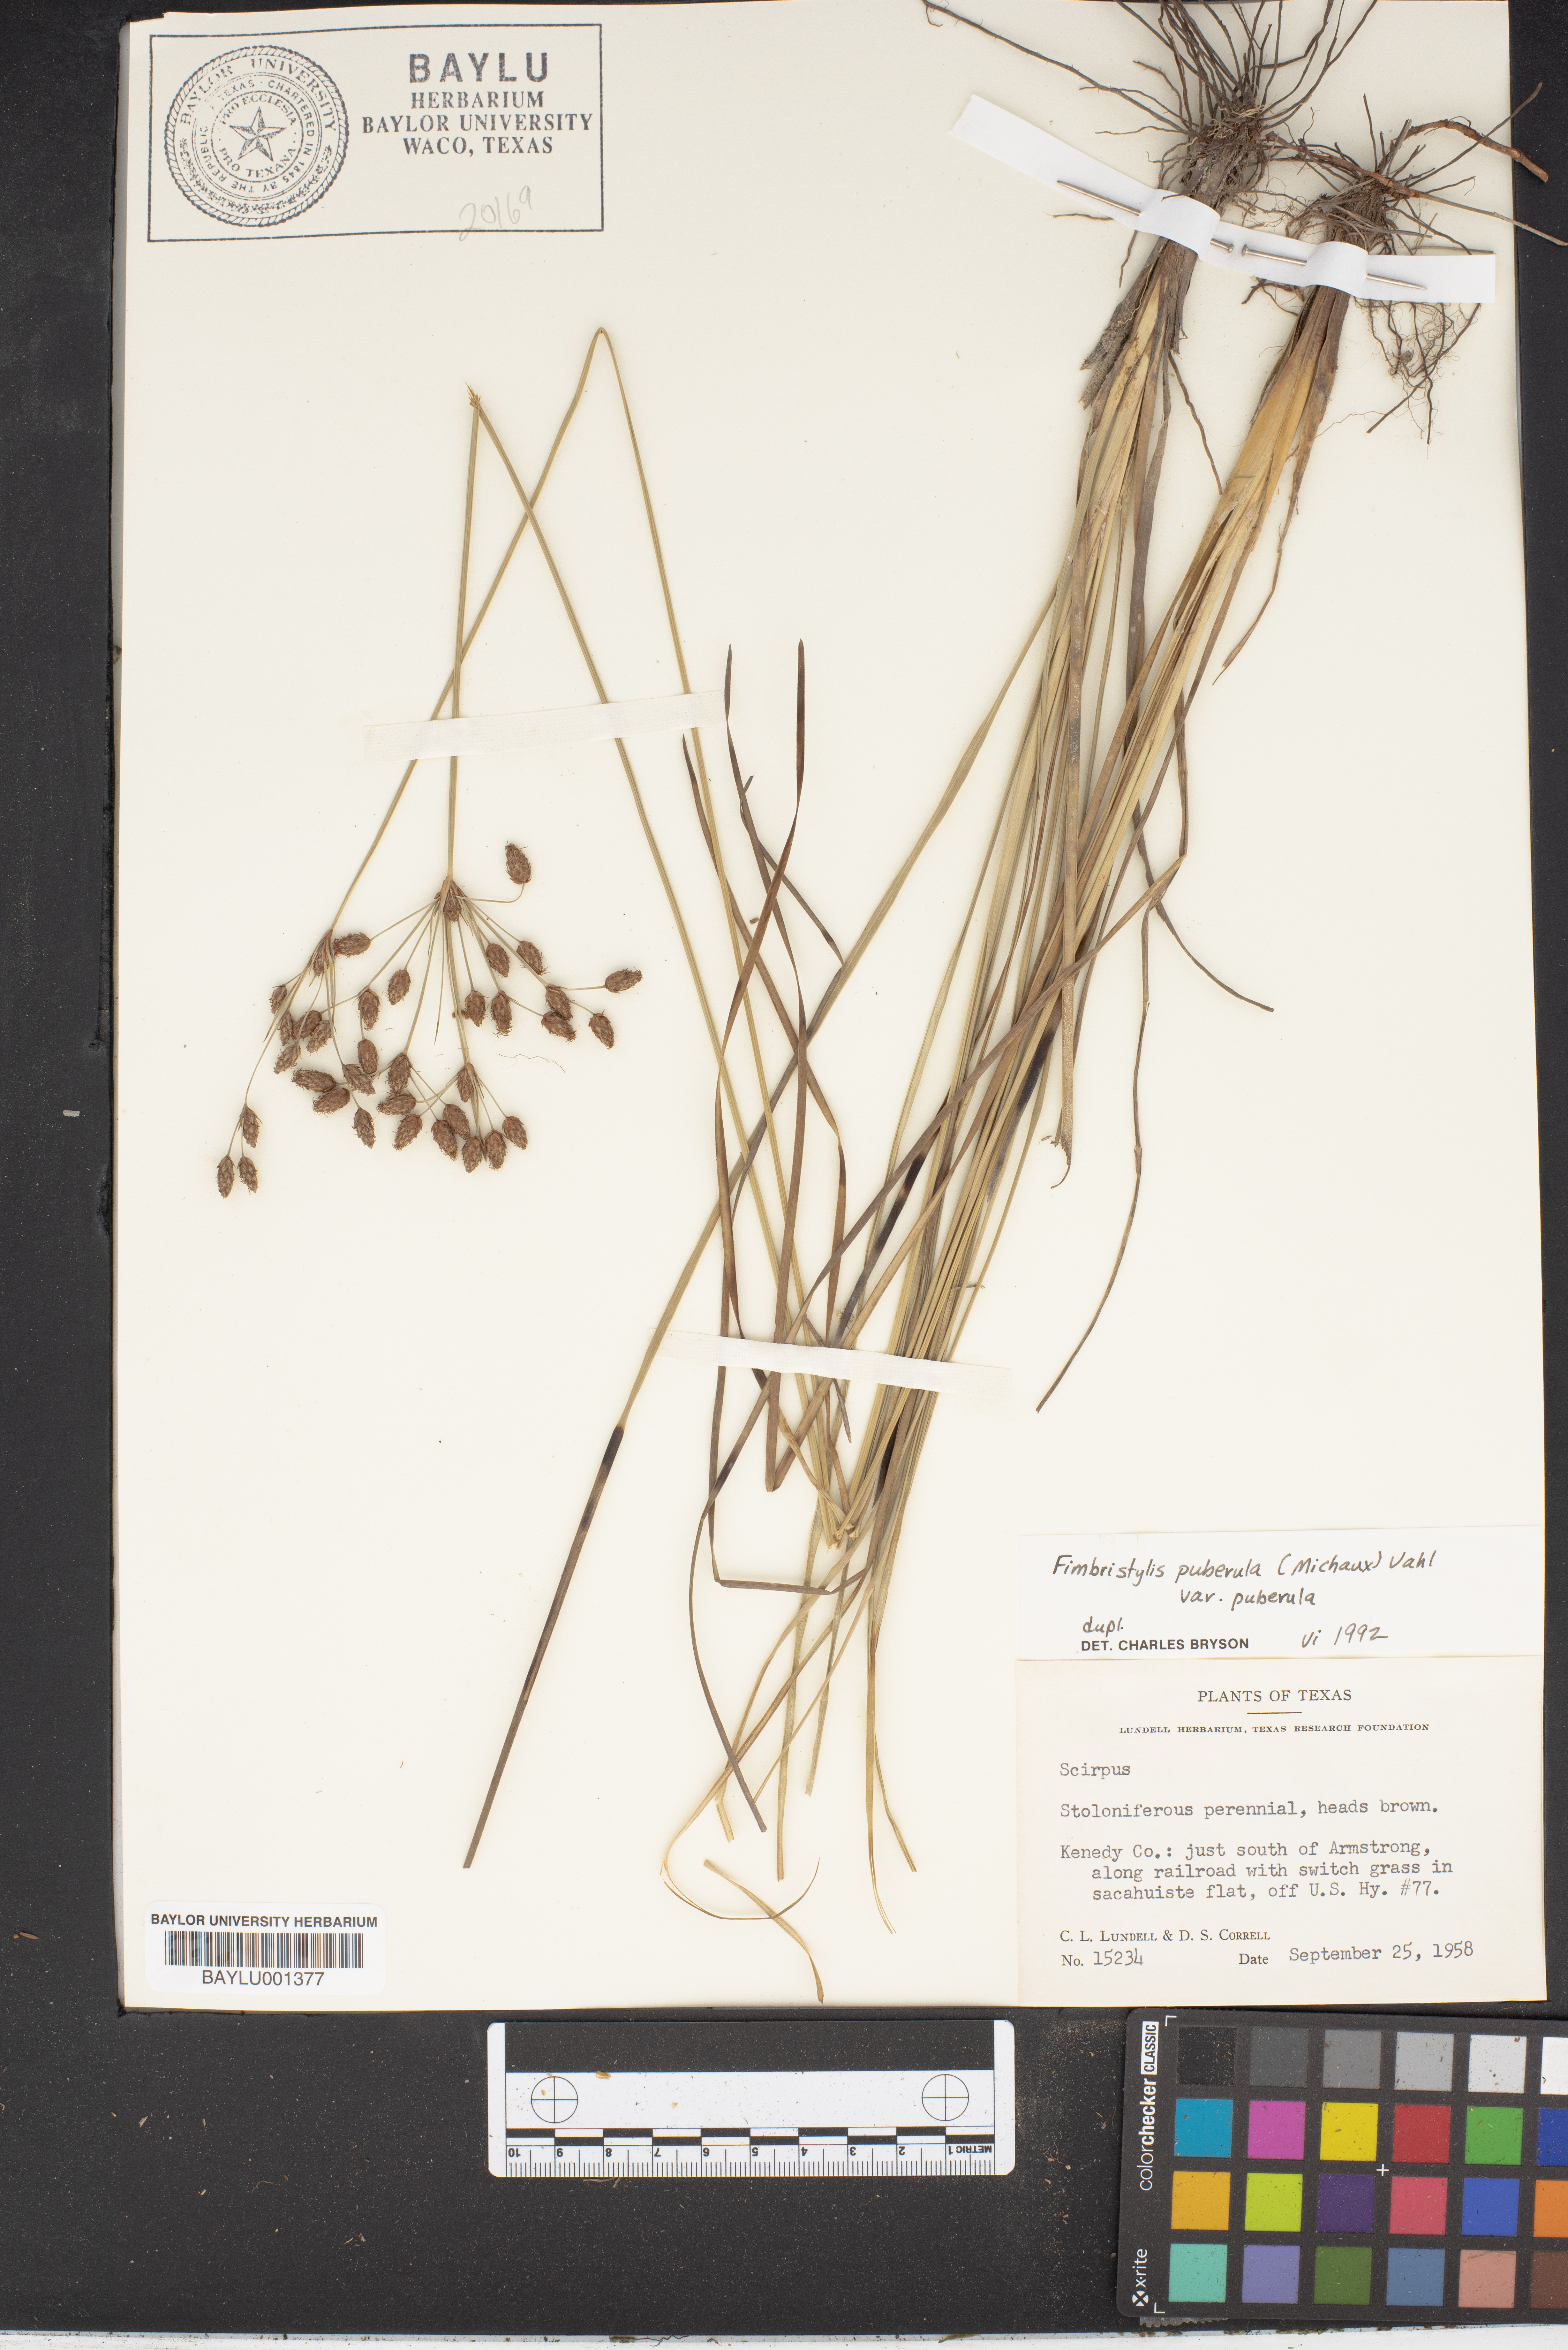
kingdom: Plantae
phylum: Tracheophyta
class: Liliopsida
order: Poales
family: Cyperaceae
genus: Fimbristylis
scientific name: Fimbristylis puberula
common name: Hairy fimbristylis
